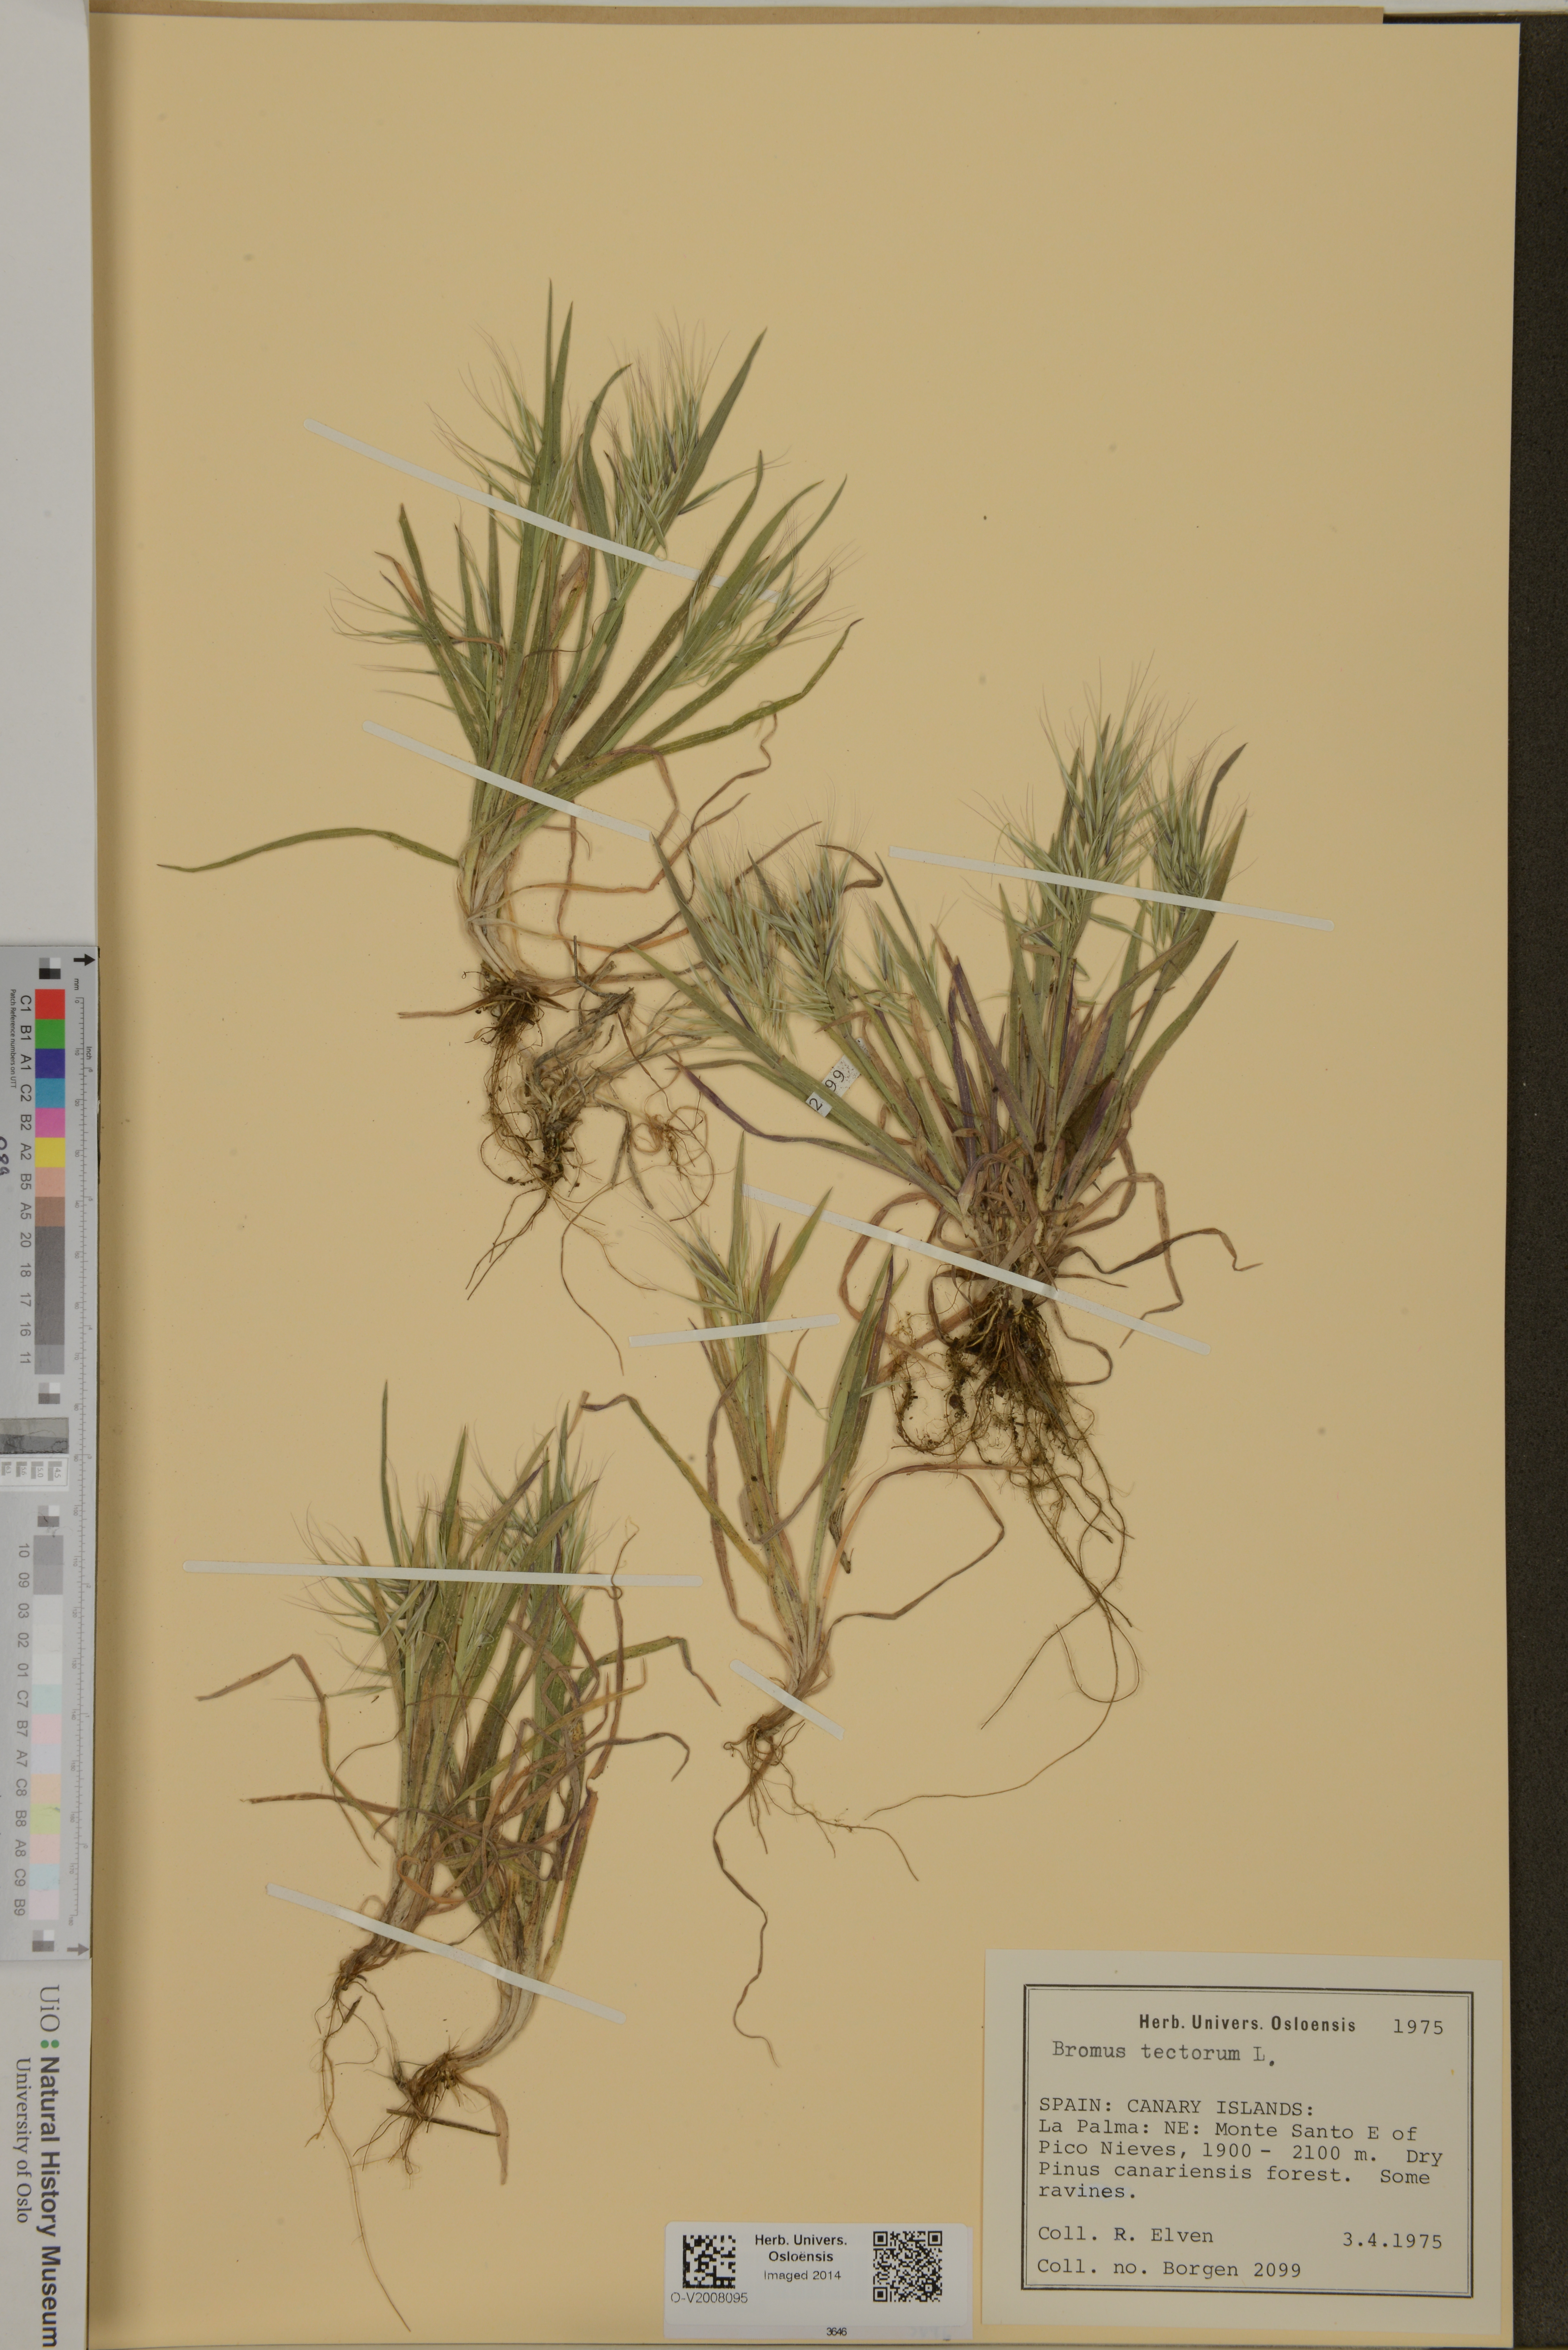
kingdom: Plantae
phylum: Tracheophyta
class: Liliopsida
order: Poales
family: Poaceae
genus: Bromus
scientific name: Bromus tectorum
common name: Cheatgrass
